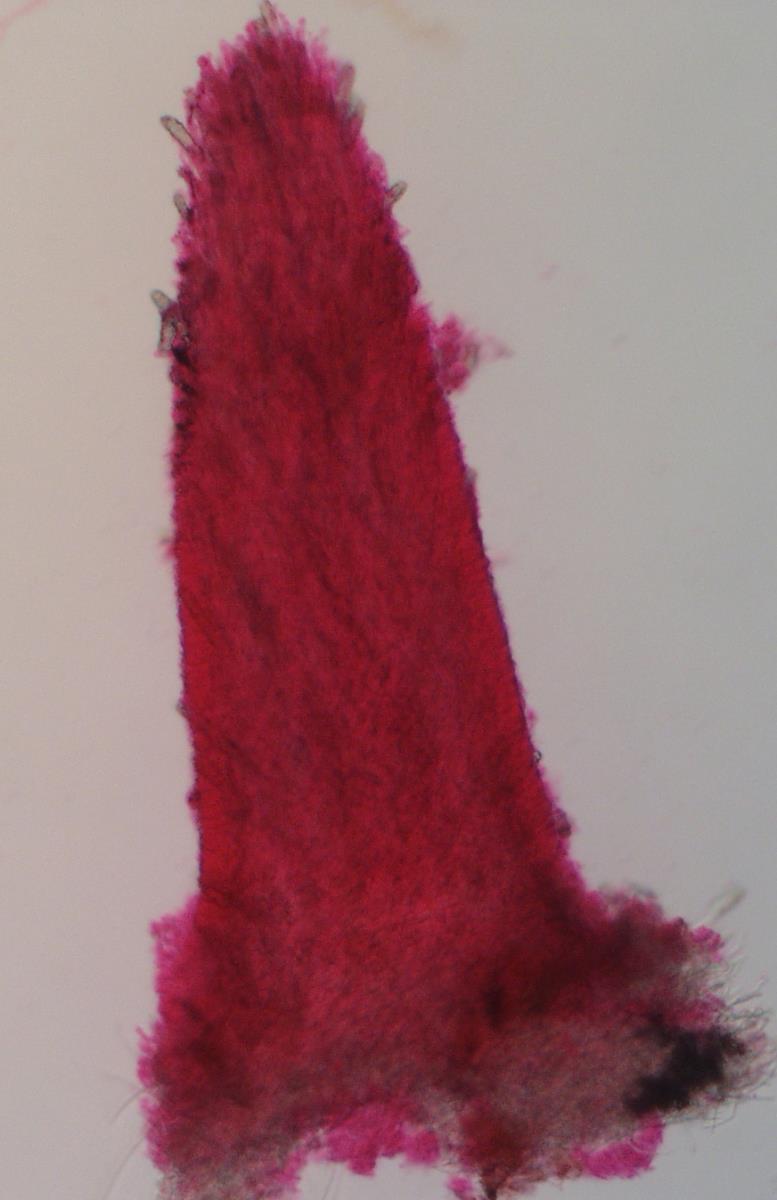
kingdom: Fungi
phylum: Basidiomycota
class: Agaricomycetes
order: Polyporales
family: Steccherinaceae
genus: Steccherinum
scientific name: Steccherinum ochraceum
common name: Ochre spreading tooth
